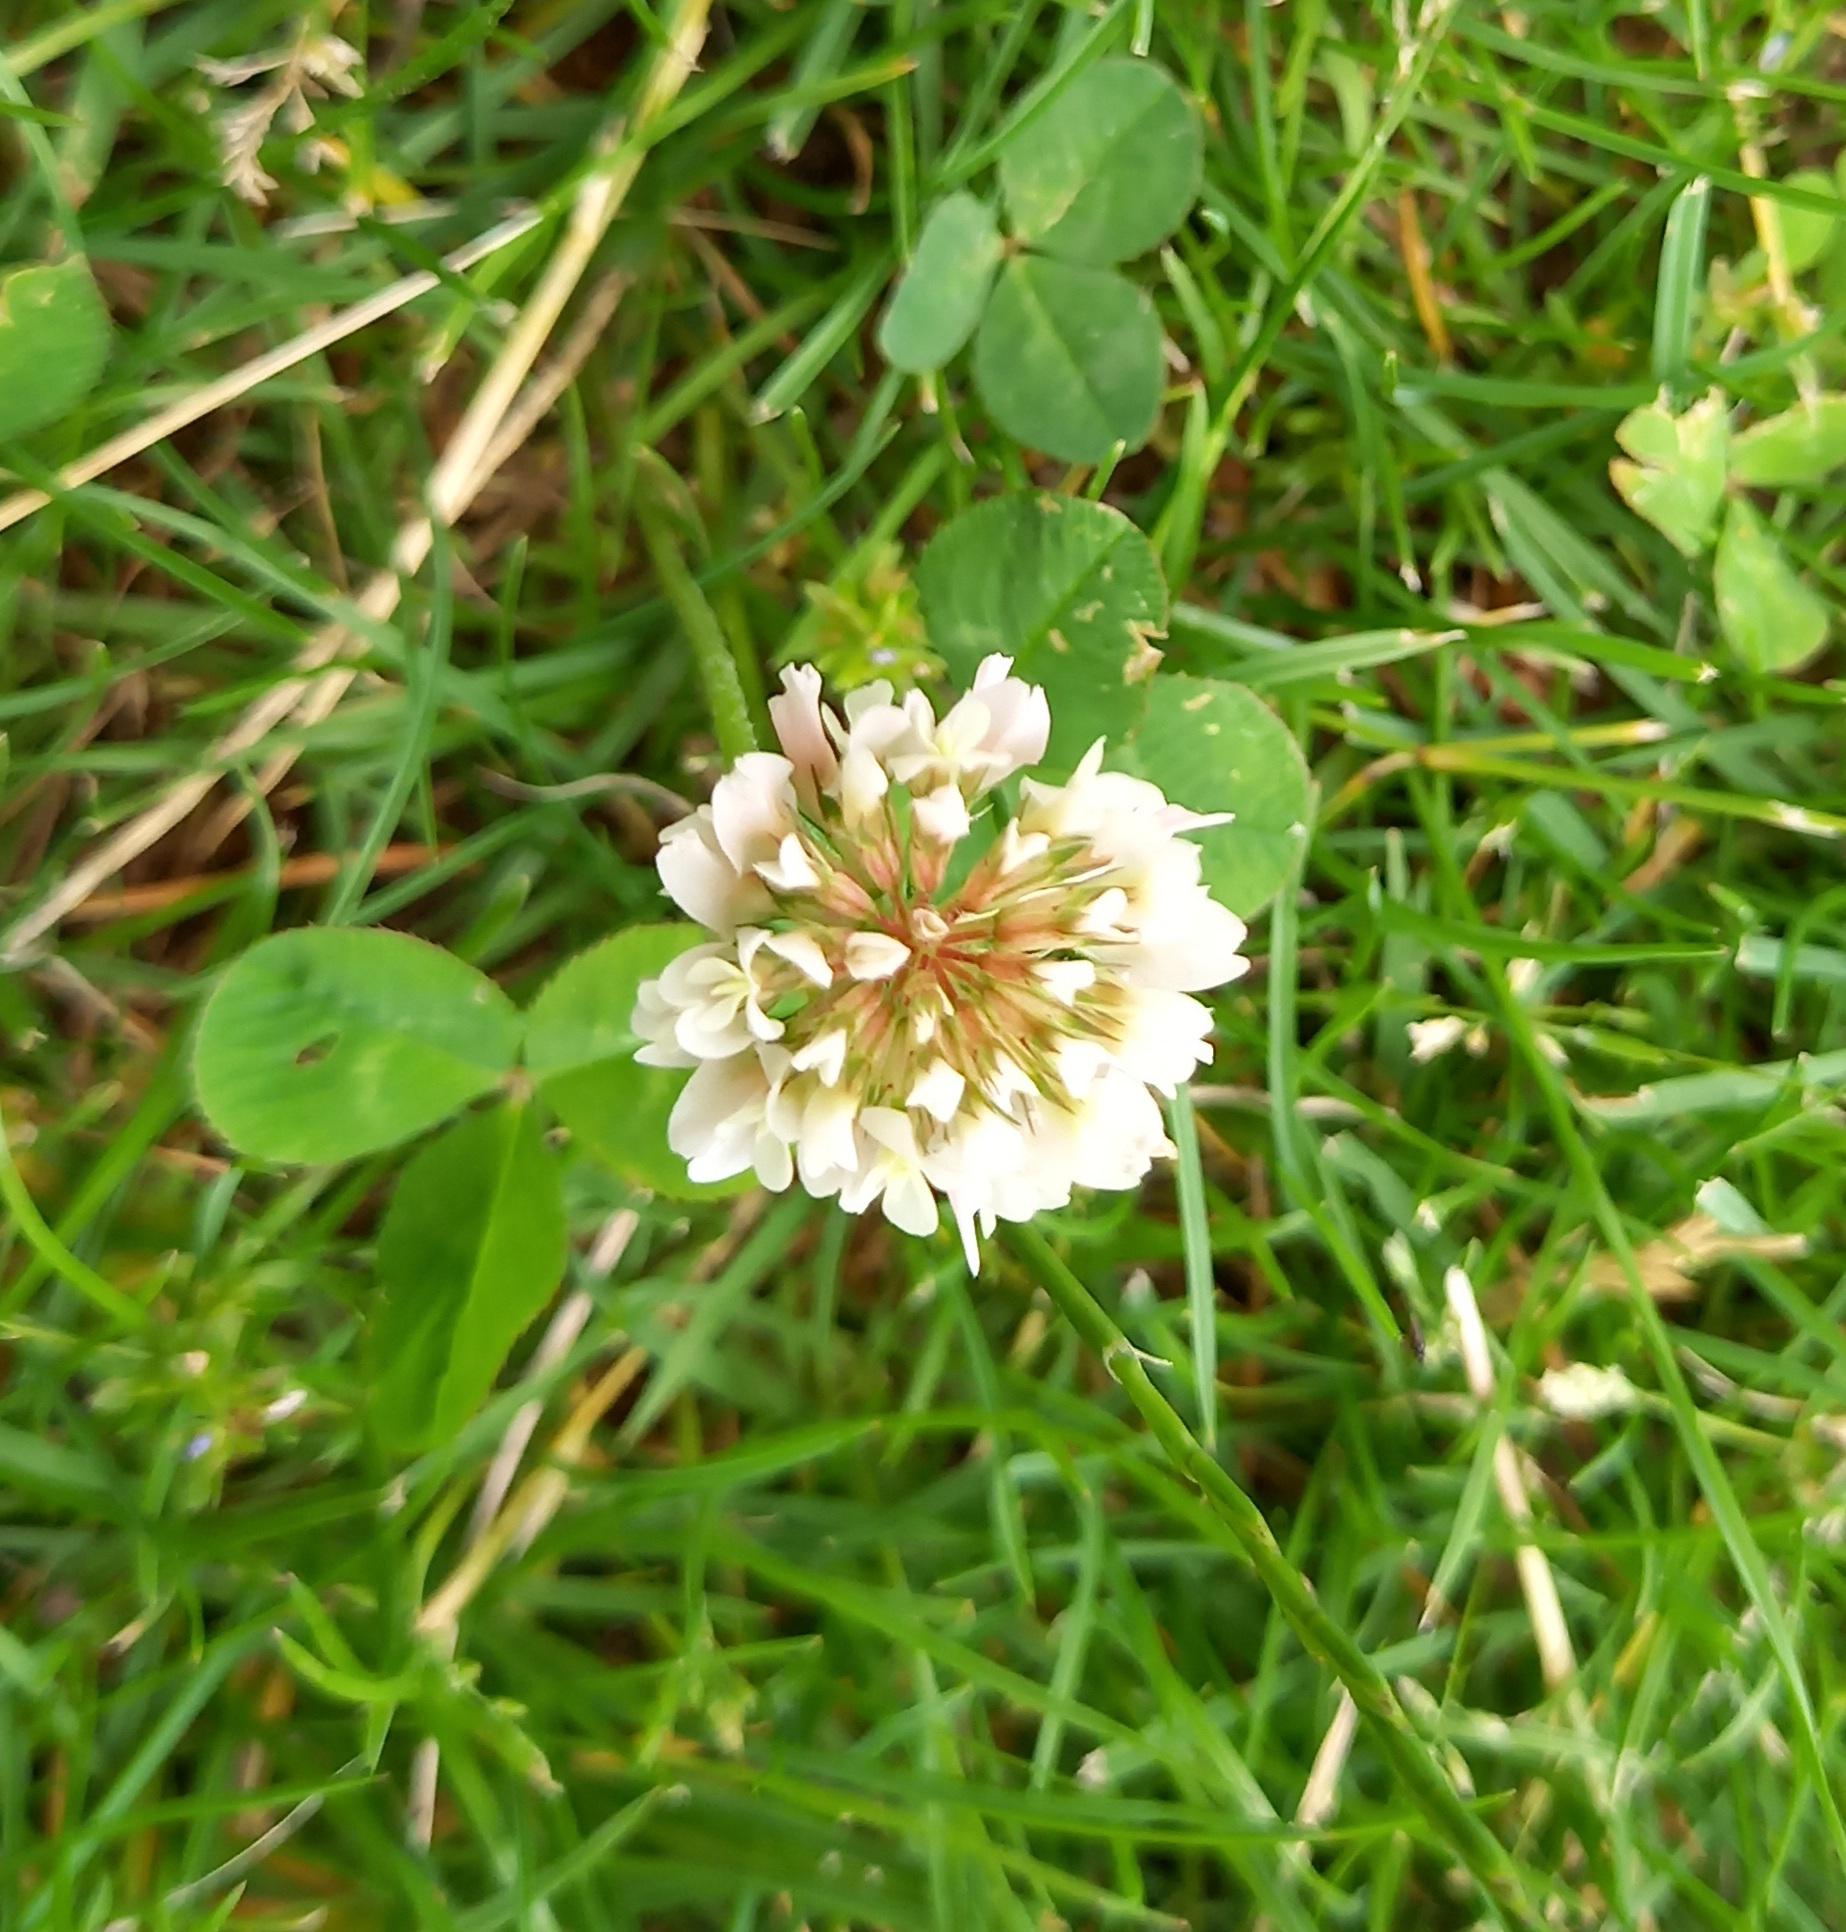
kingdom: Plantae
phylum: Tracheophyta
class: Magnoliopsida
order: Fabales
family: Fabaceae
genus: Trifolium
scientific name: Trifolium repens
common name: Hvid-kløver
